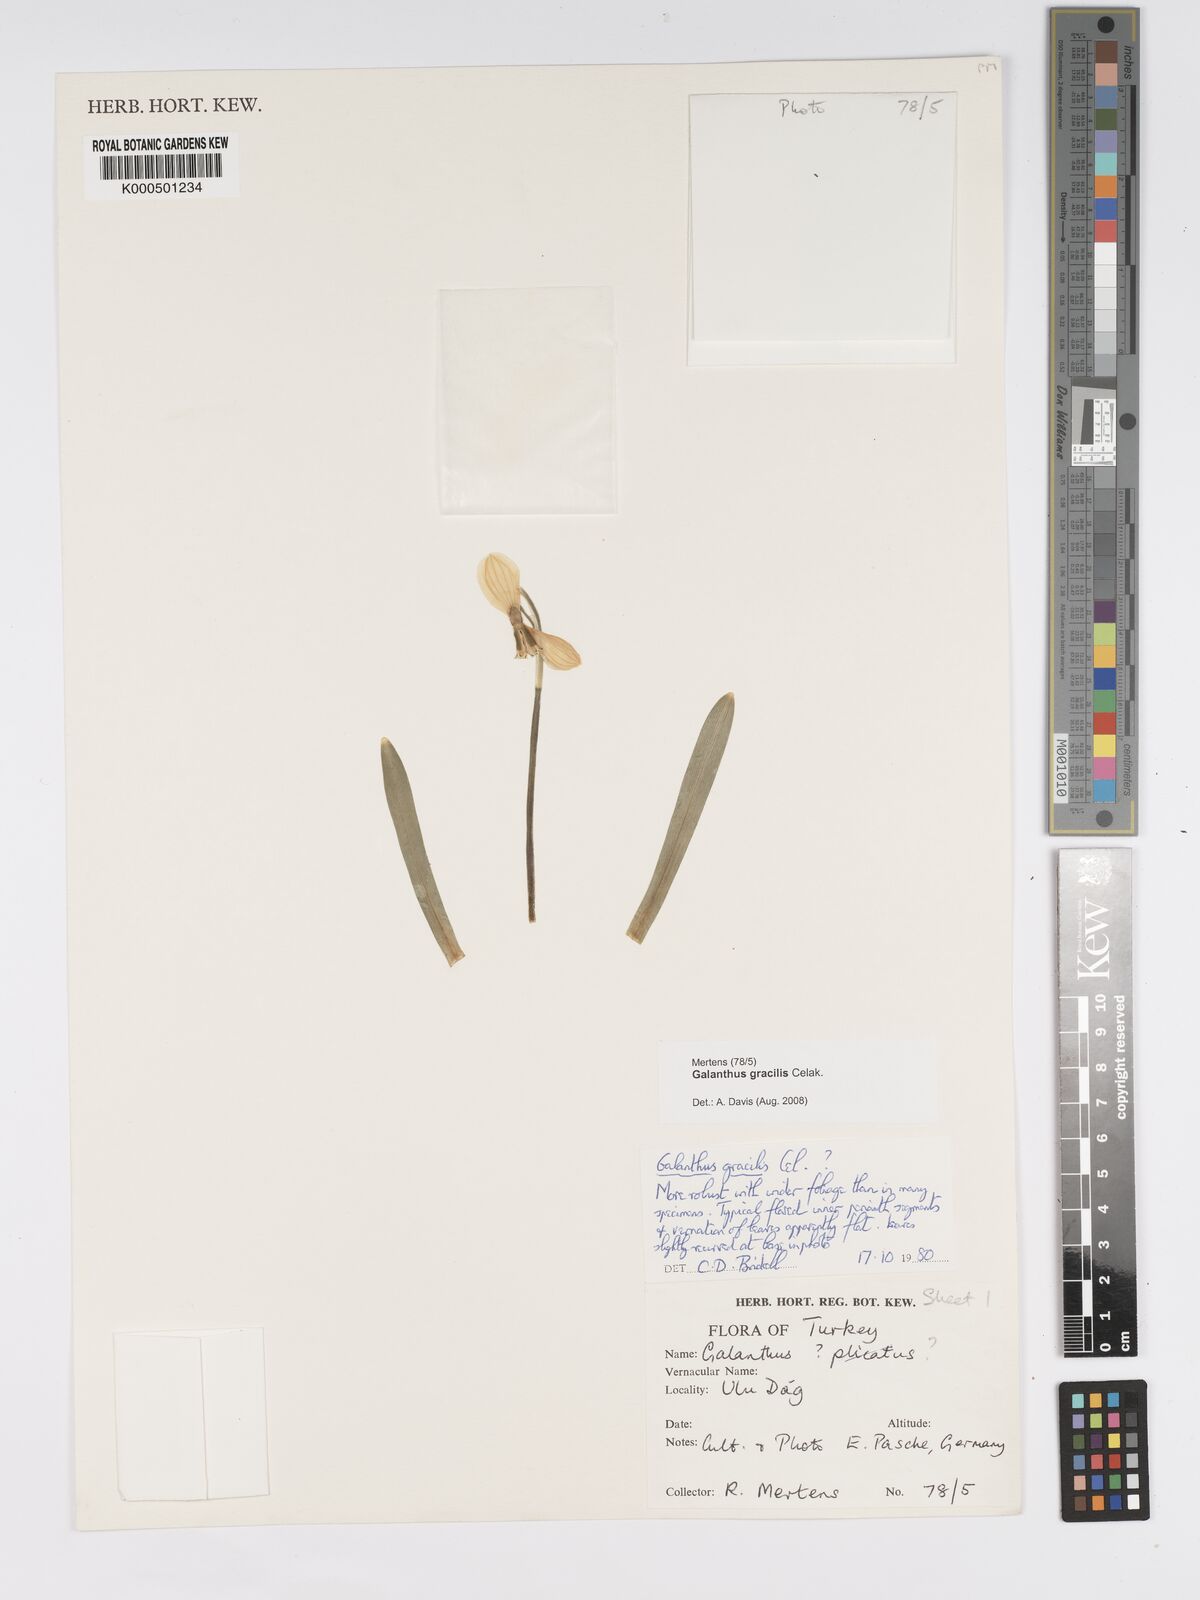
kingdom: Plantae
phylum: Tracheophyta
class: Liliopsida
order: Asparagales
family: Amaryllidaceae
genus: Galanthus
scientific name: Galanthus gracilis
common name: Snowdrop
